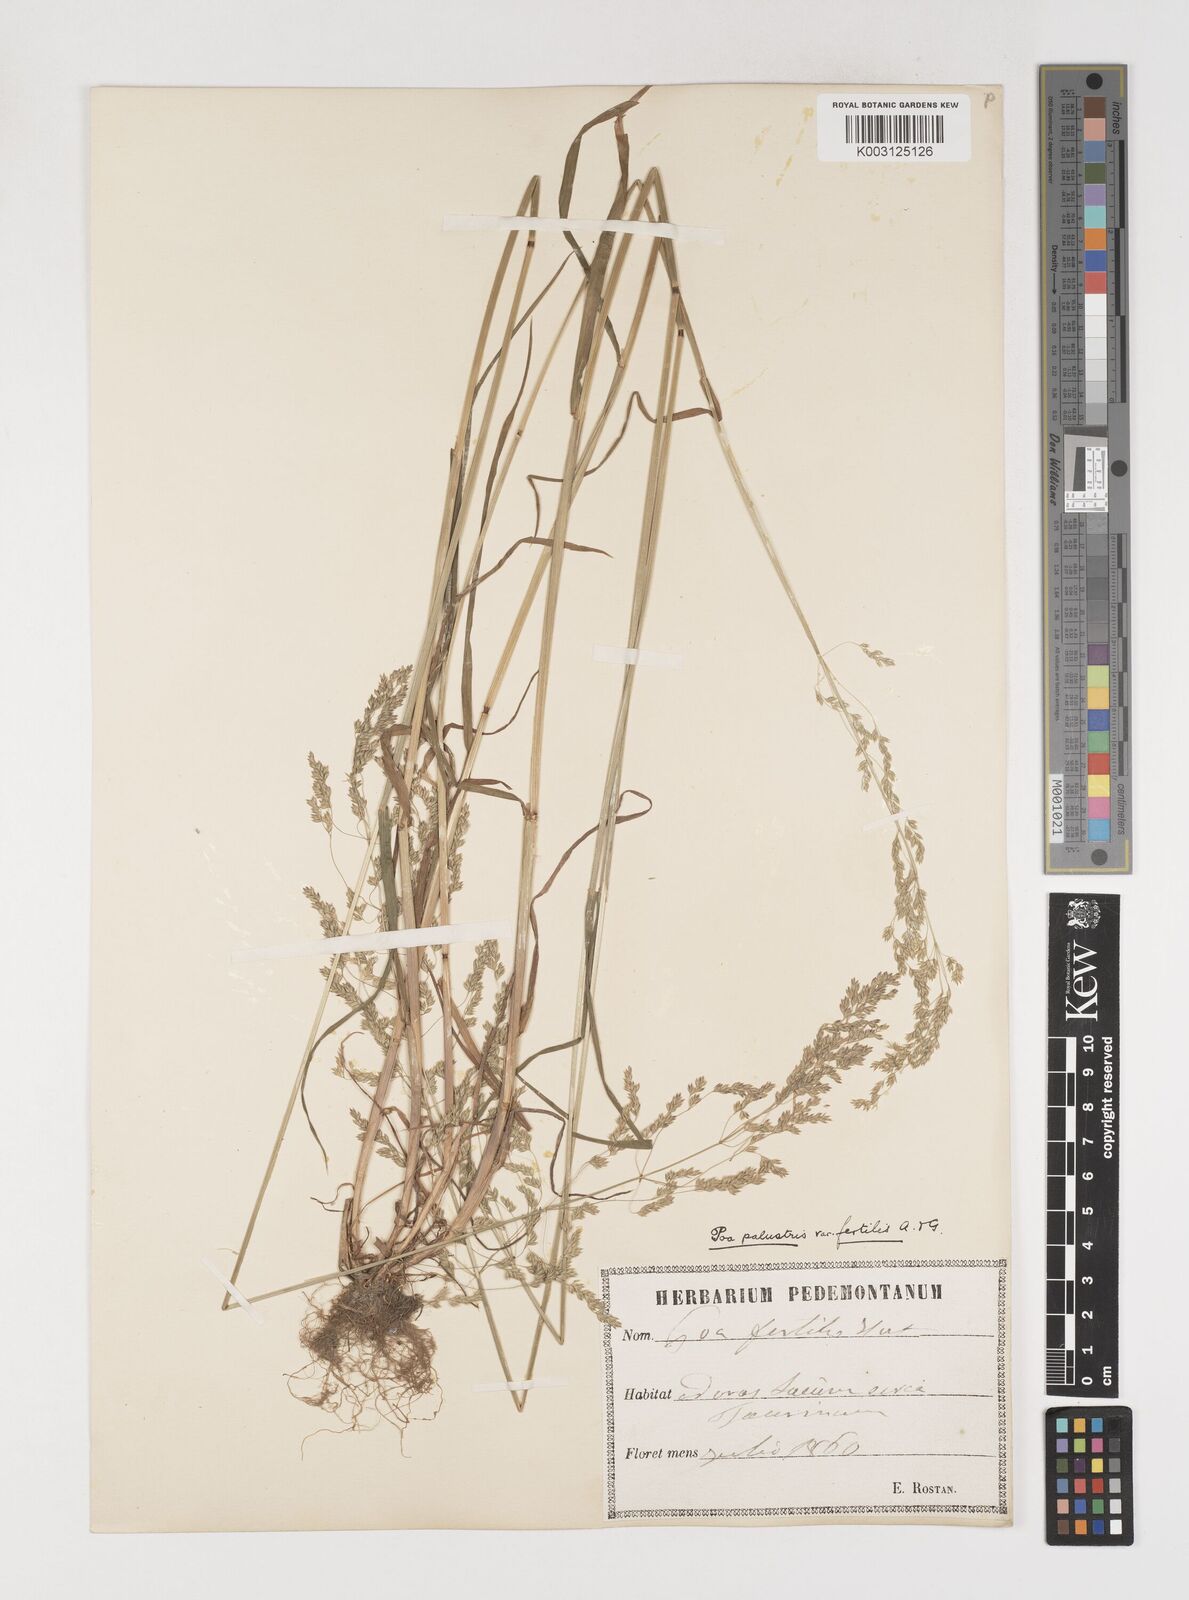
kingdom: Plantae
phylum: Tracheophyta
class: Liliopsida
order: Poales
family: Poaceae
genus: Poa
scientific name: Poa trivialis
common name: Rough bluegrass
